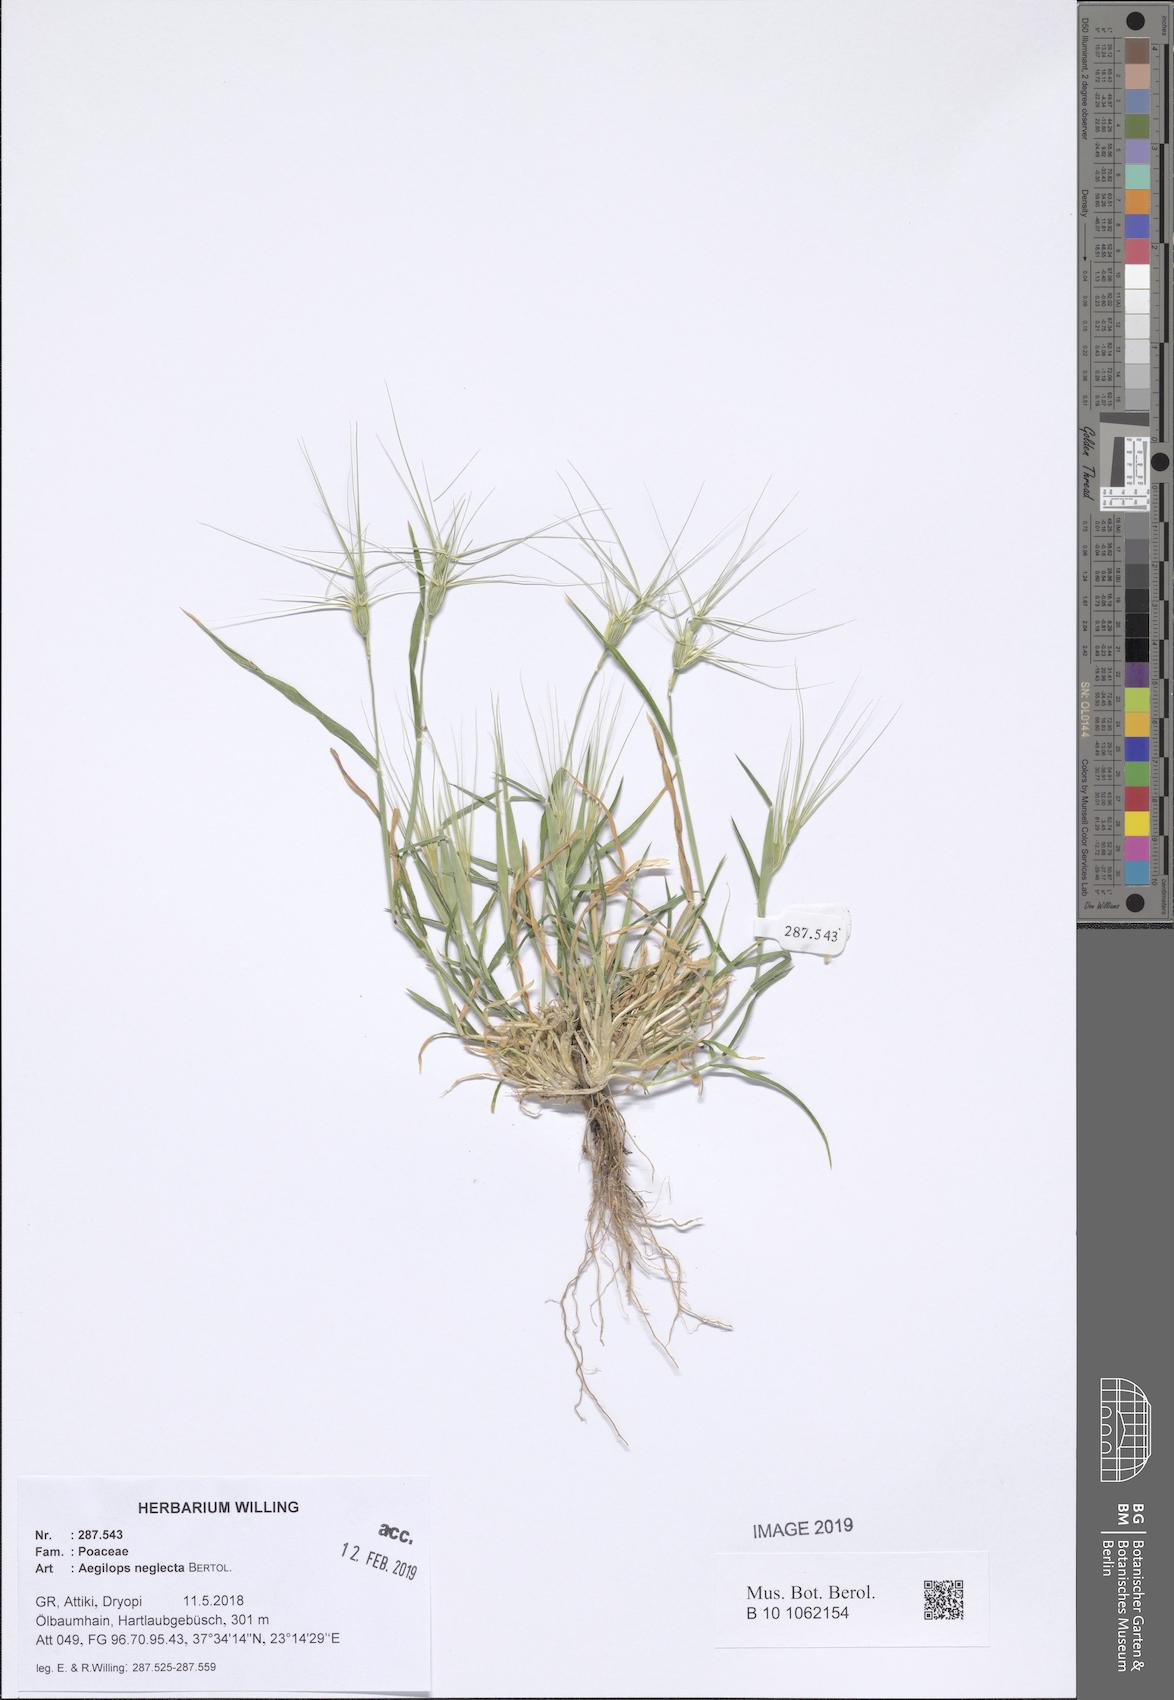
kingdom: Plantae
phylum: Tracheophyta
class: Liliopsida
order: Poales
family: Poaceae
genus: Aegilops
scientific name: Aegilops neglecta
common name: Three-awn goat grass
